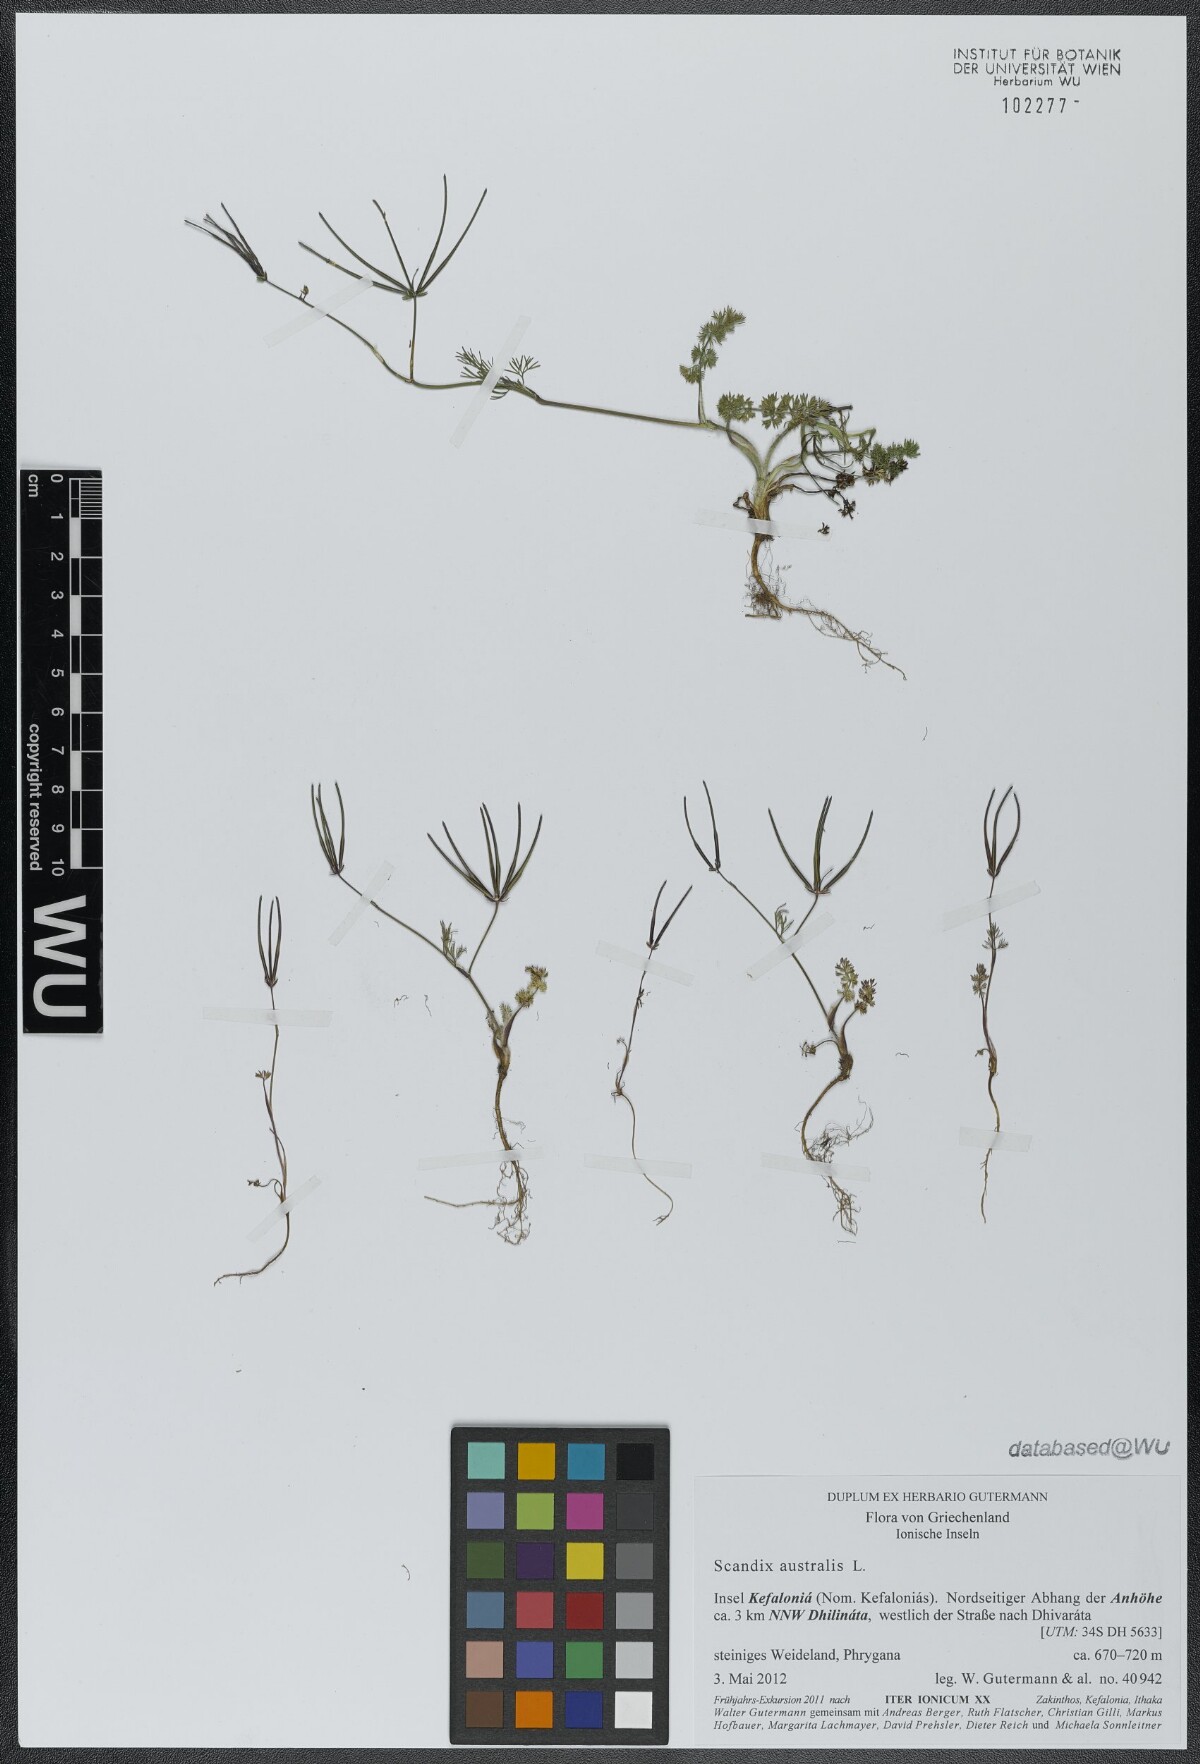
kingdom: Plantae
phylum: Tracheophyta
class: Magnoliopsida
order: Apiales
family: Apiaceae
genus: Scandix
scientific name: Scandix australis
